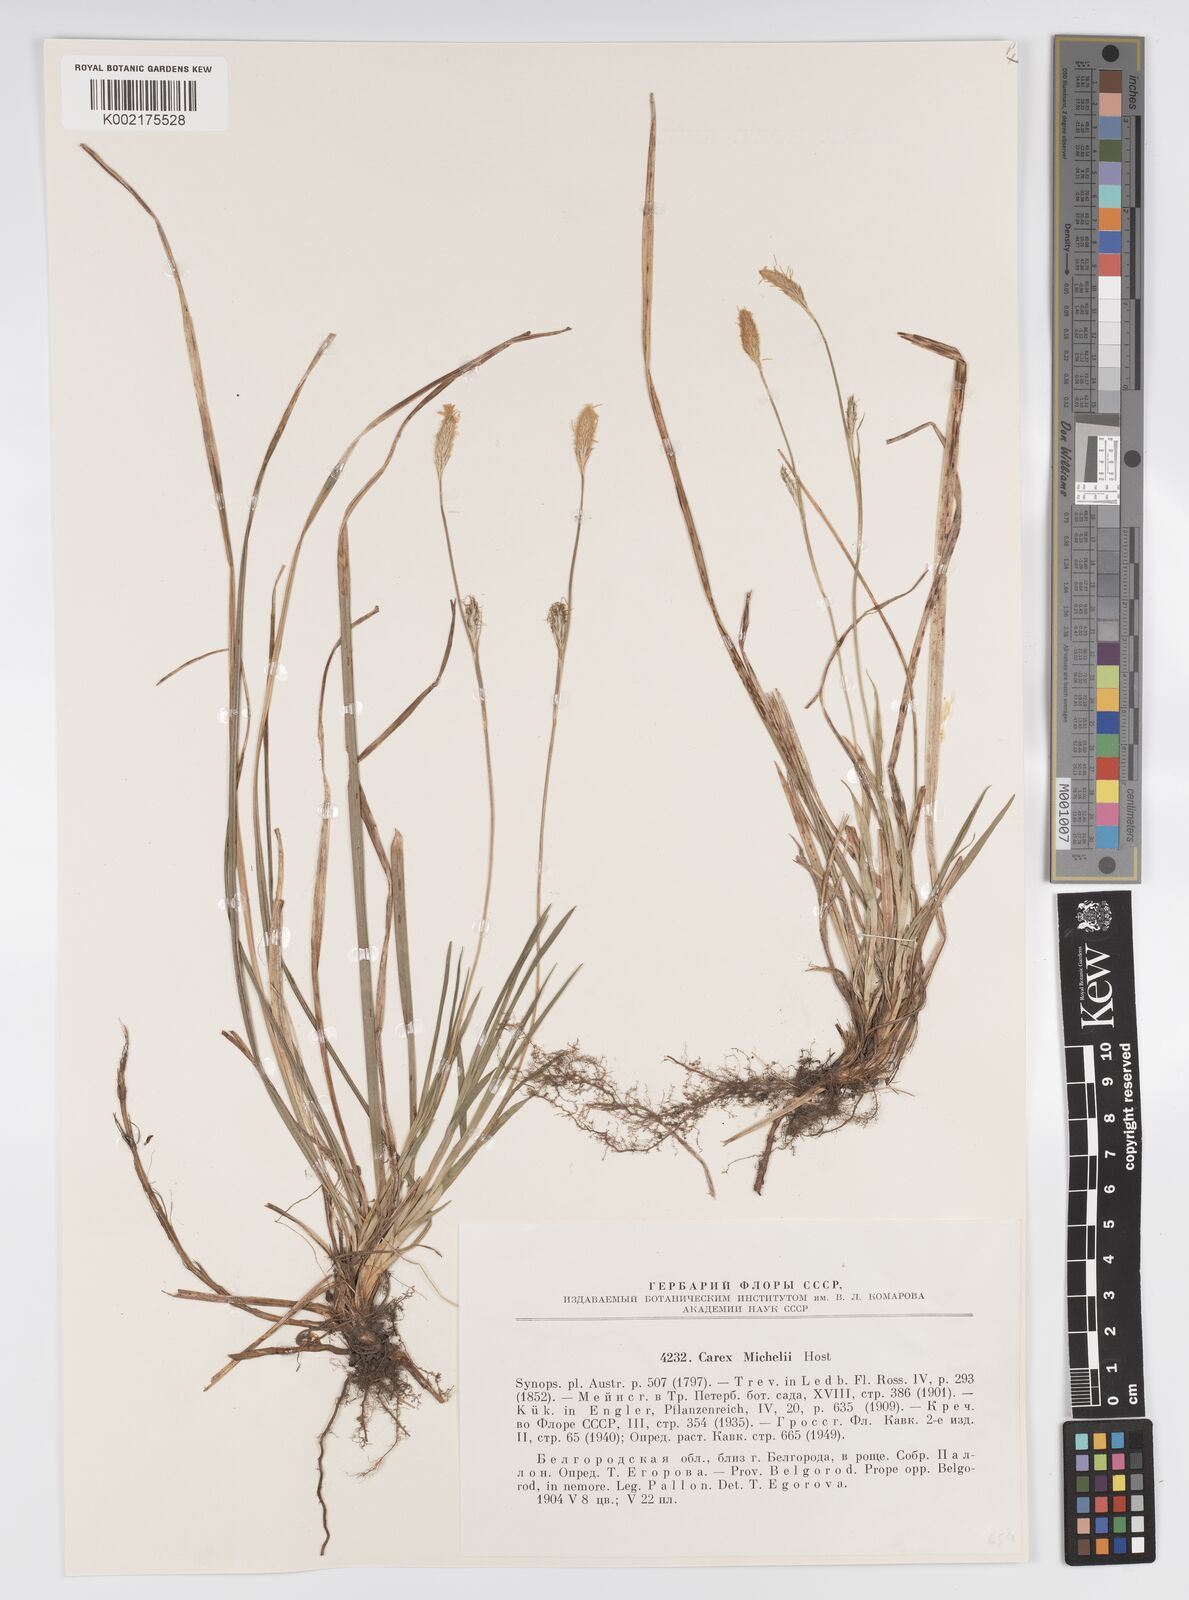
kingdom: Plantae
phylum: Tracheophyta
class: Liliopsida
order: Poales
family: Cyperaceae
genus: Carex
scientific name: Carex michelii
